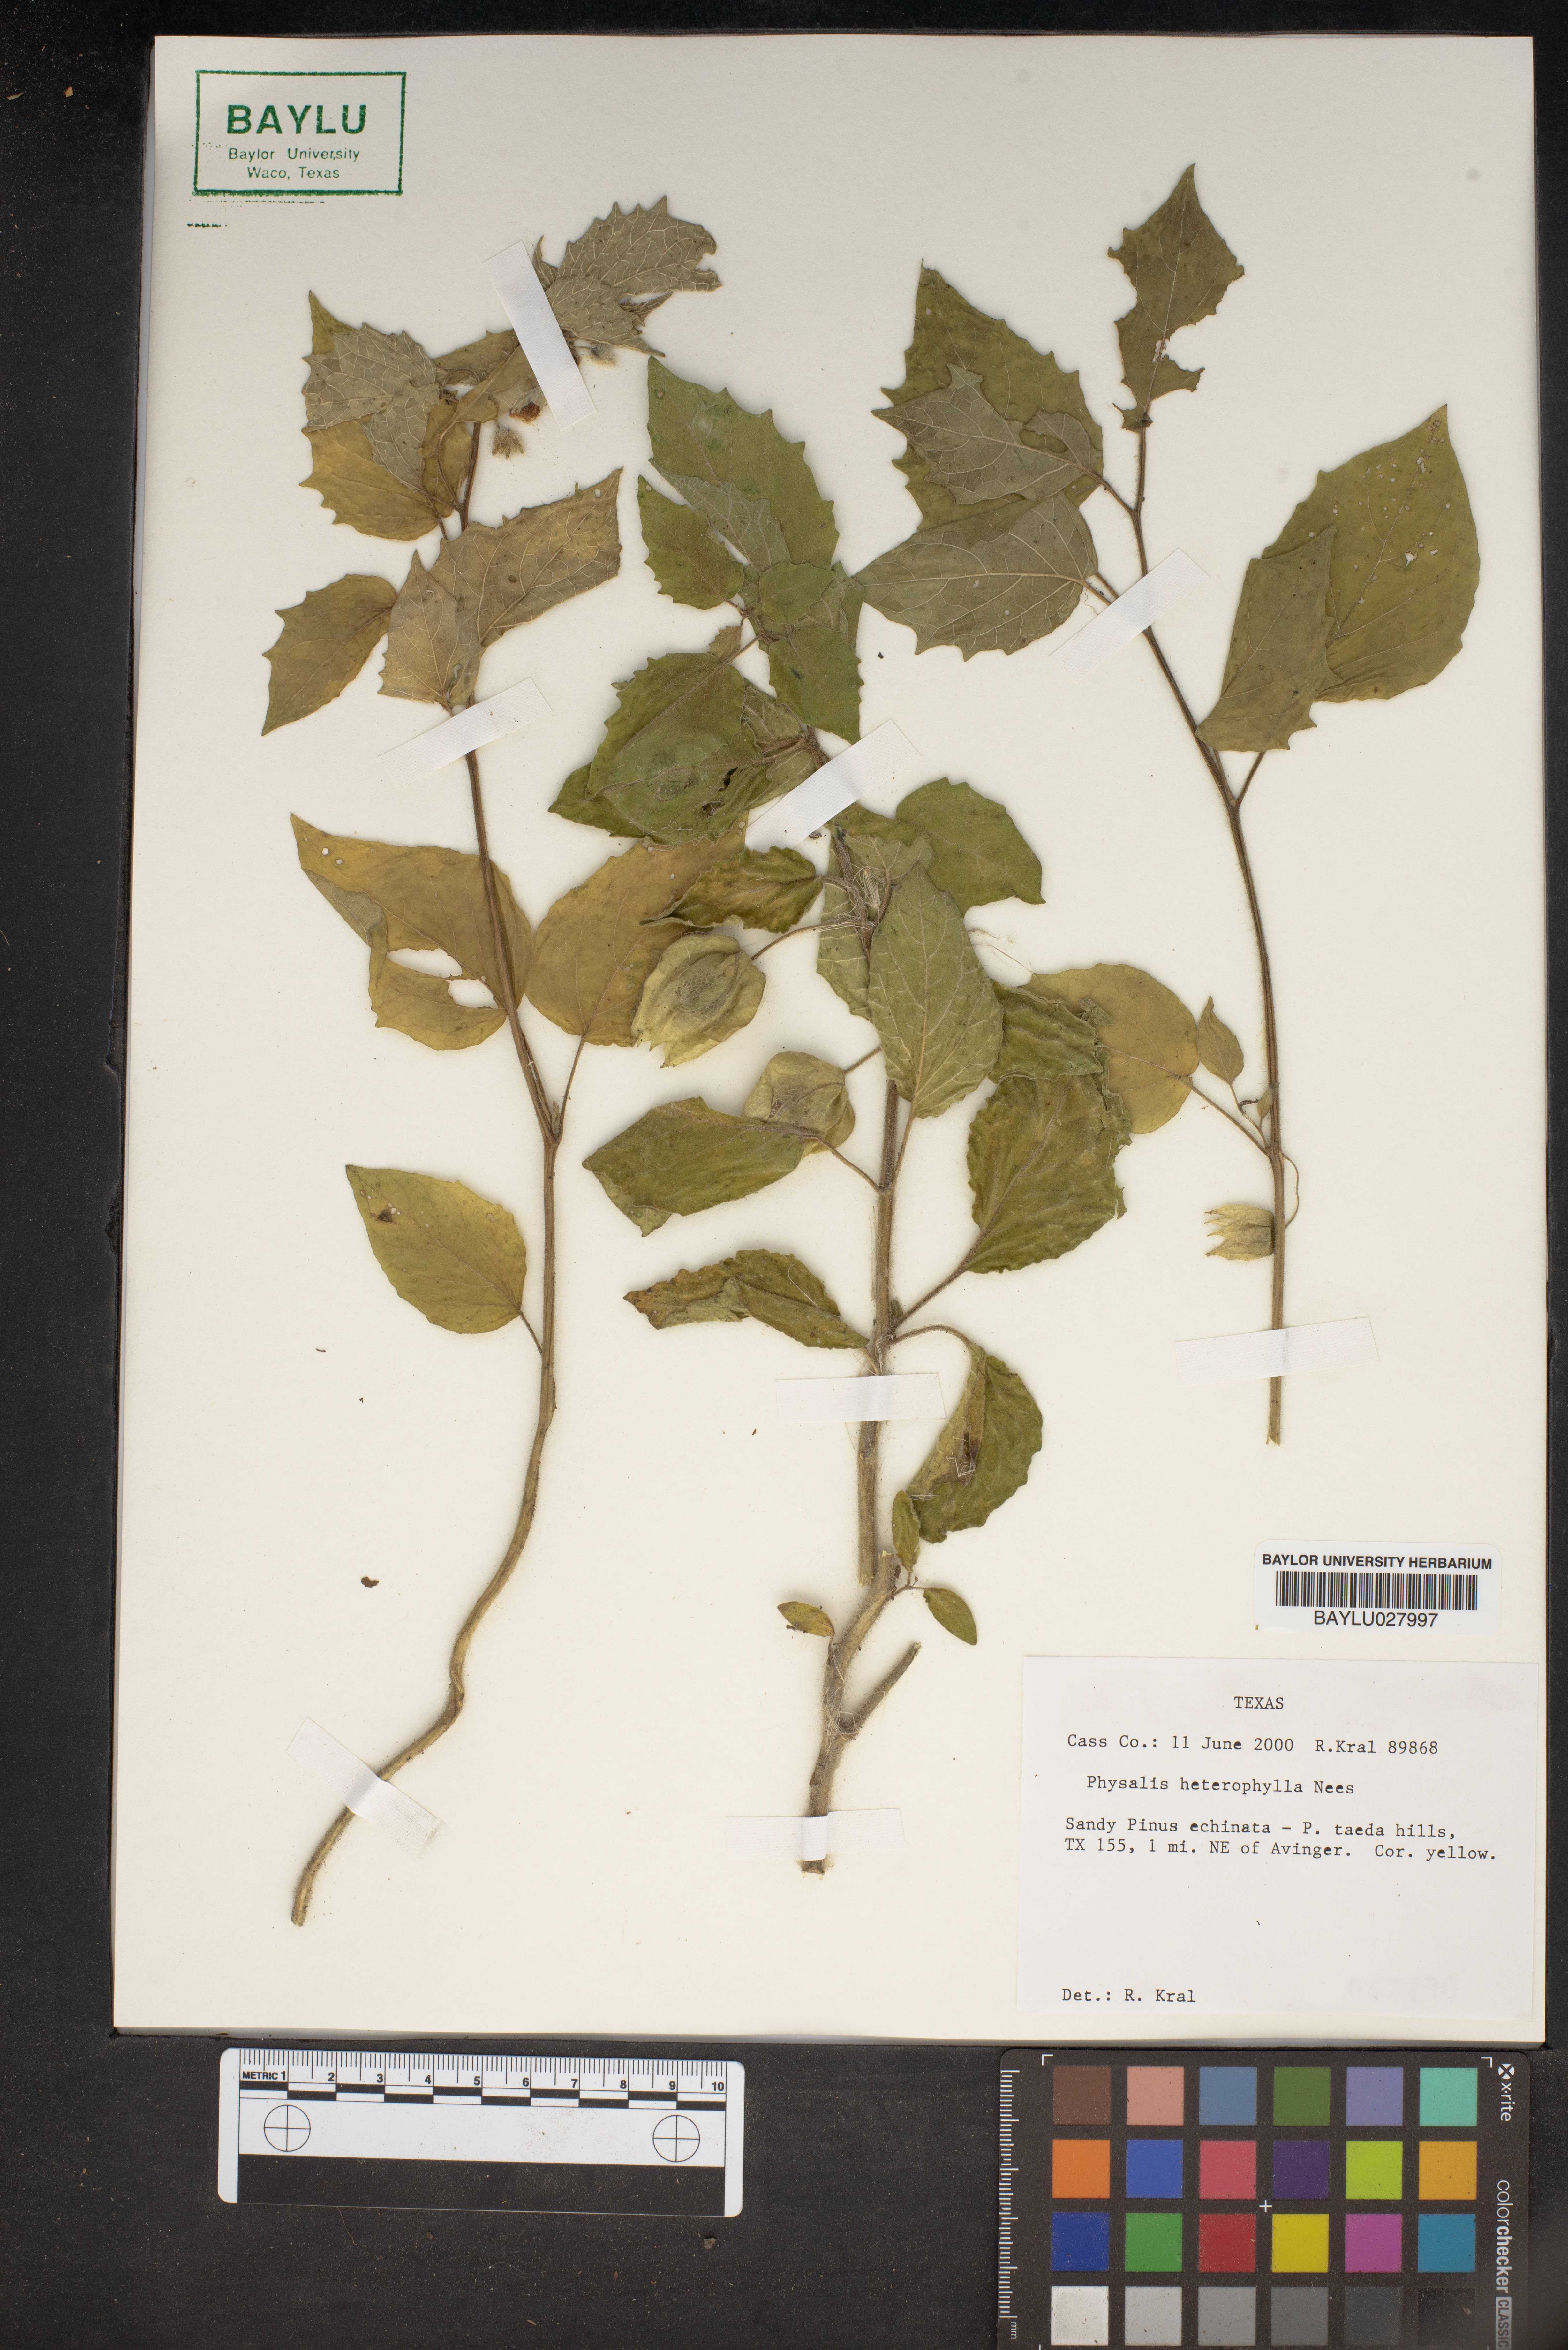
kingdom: Plantae
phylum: Tracheophyta
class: Magnoliopsida
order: Solanales
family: Solanaceae
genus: Physalis
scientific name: Physalis heterophylla
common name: Clammy ground-cherry
